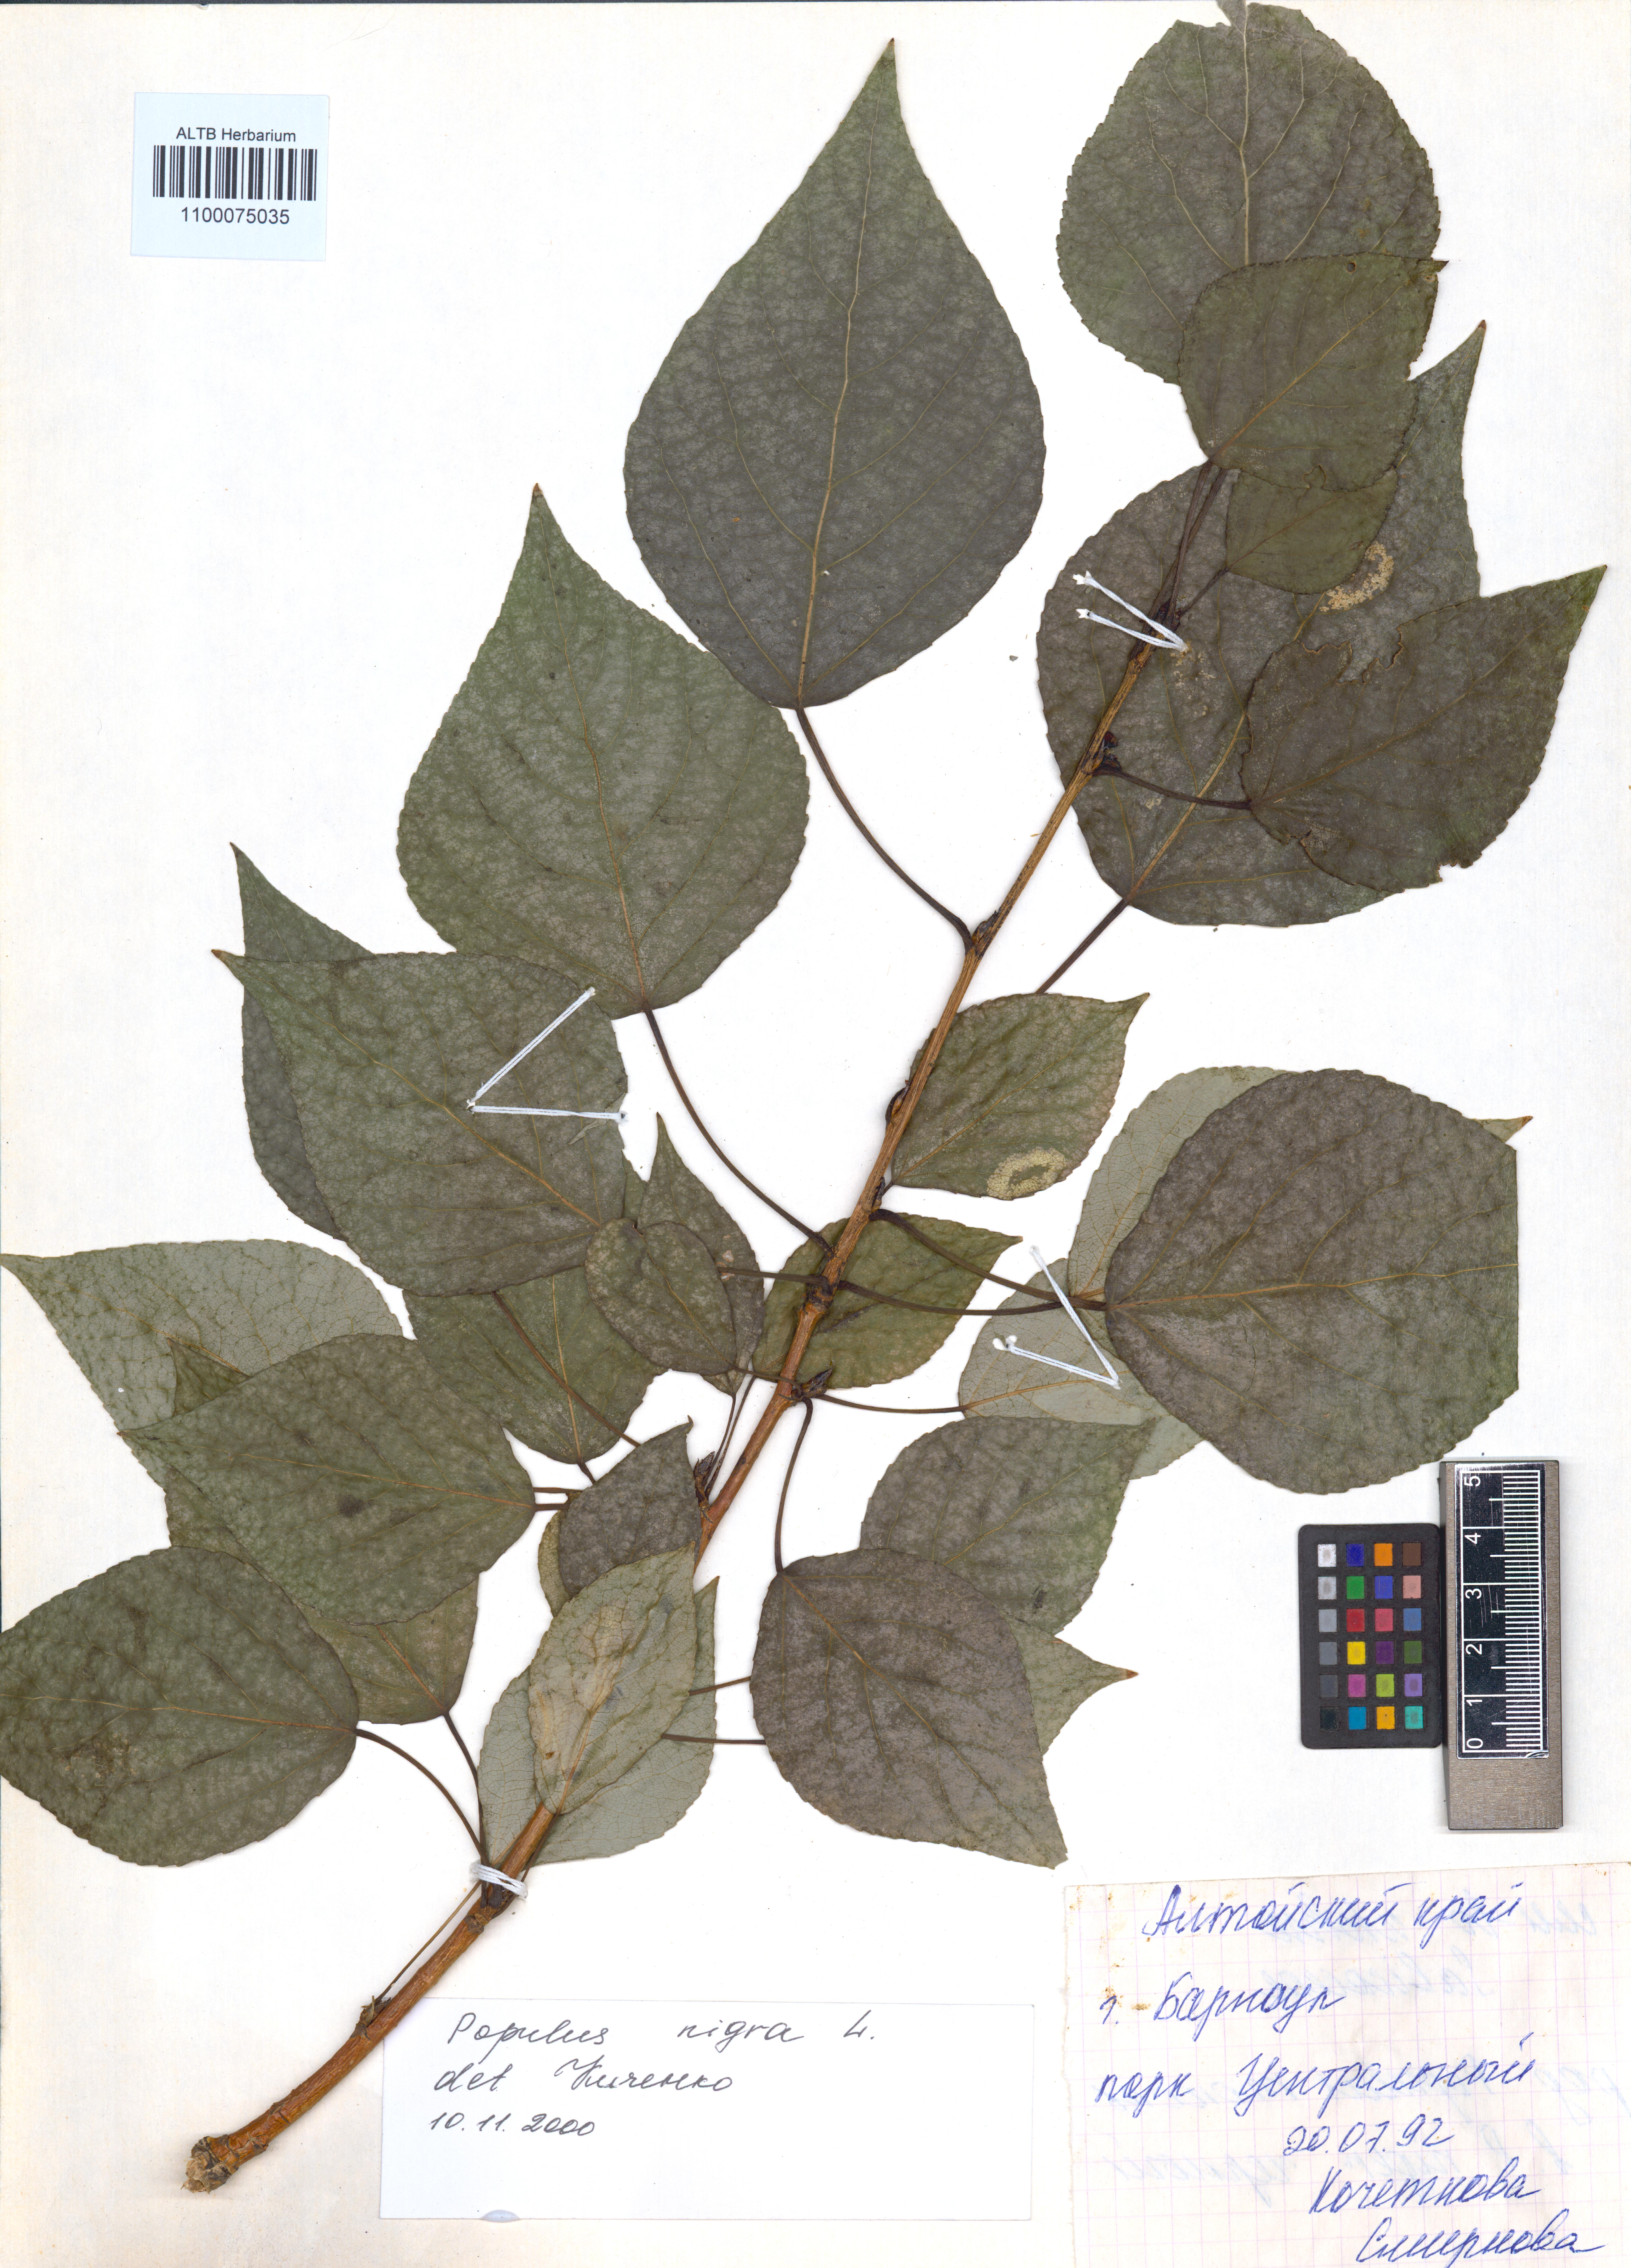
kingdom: Plantae
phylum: Tracheophyta
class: Magnoliopsida
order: Malpighiales
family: Salicaceae
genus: Populus
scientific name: Populus nigra
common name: Black poplar
